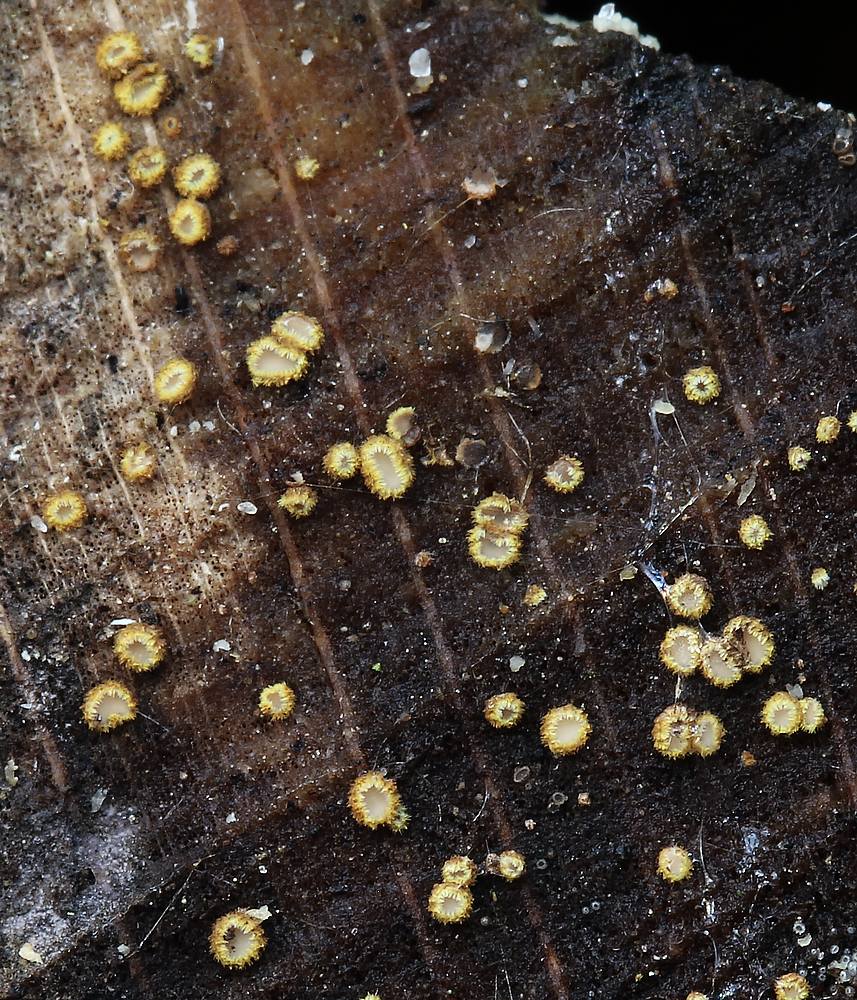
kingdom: Fungi
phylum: Ascomycota
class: Leotiomycetes
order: Helotiales
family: Lachnaceae
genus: Trichopeziza
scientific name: Trichopeziza subsulphurea
